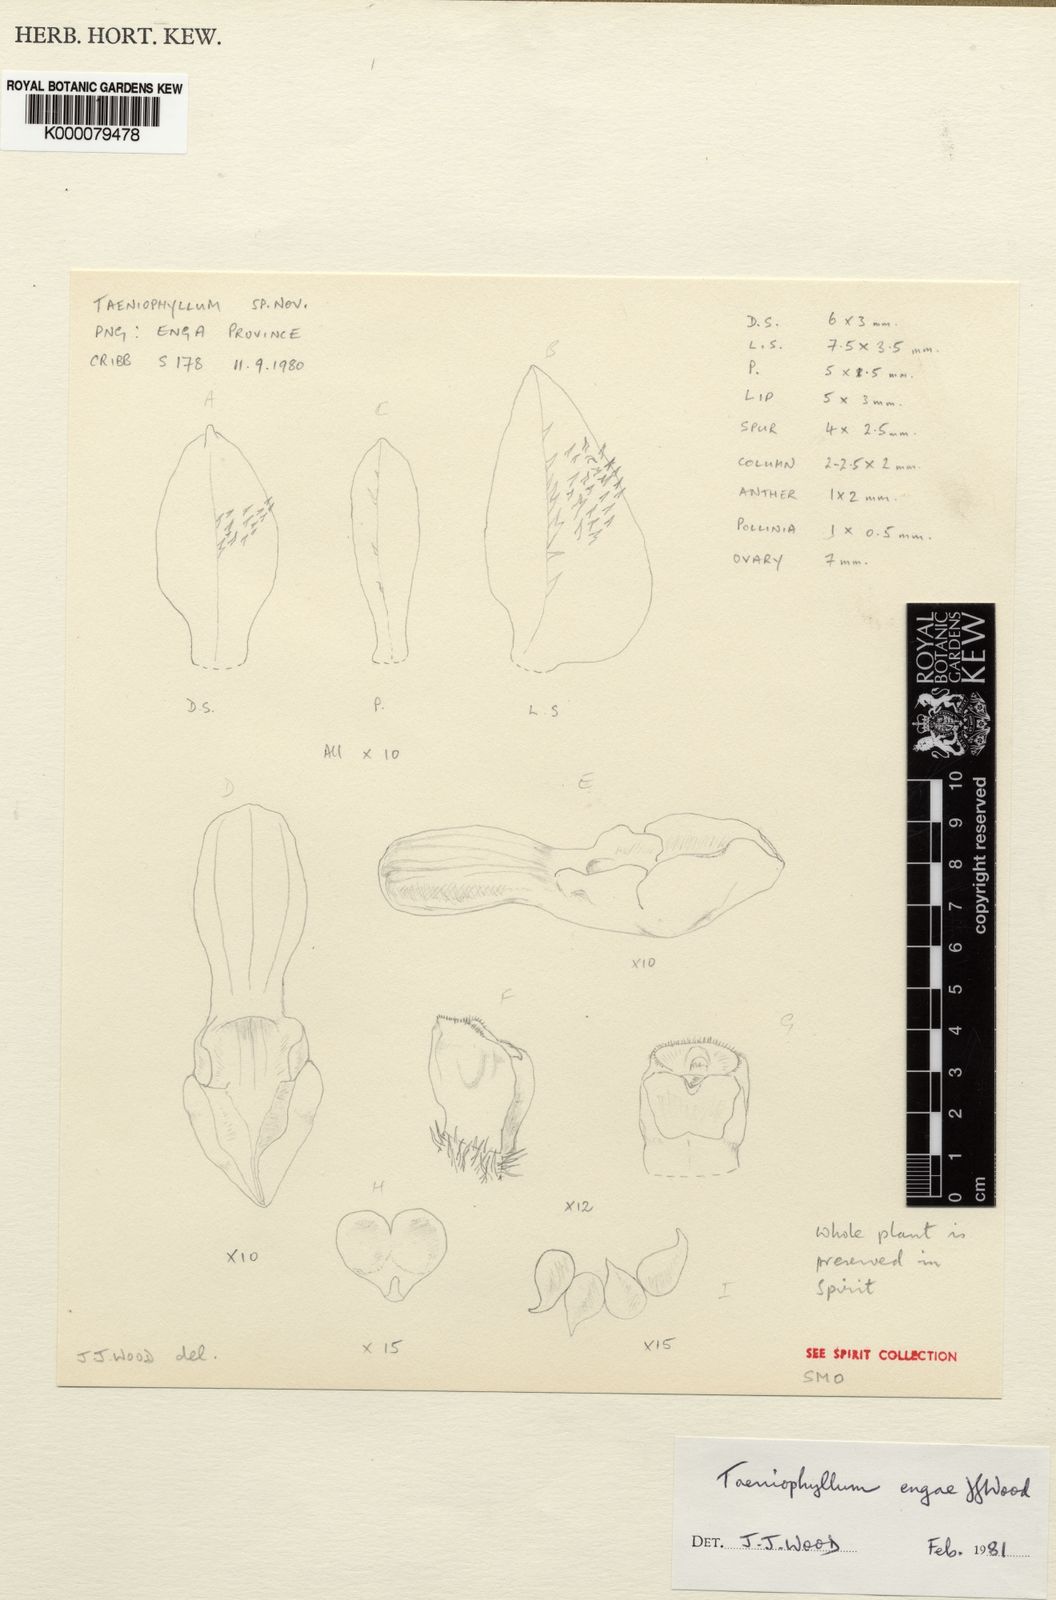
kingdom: Plantae
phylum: Tracheophyta
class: Liliopsida
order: Asparagales
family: Orchidaceae
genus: Taeniophyllum
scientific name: Taeniophyllum engae
